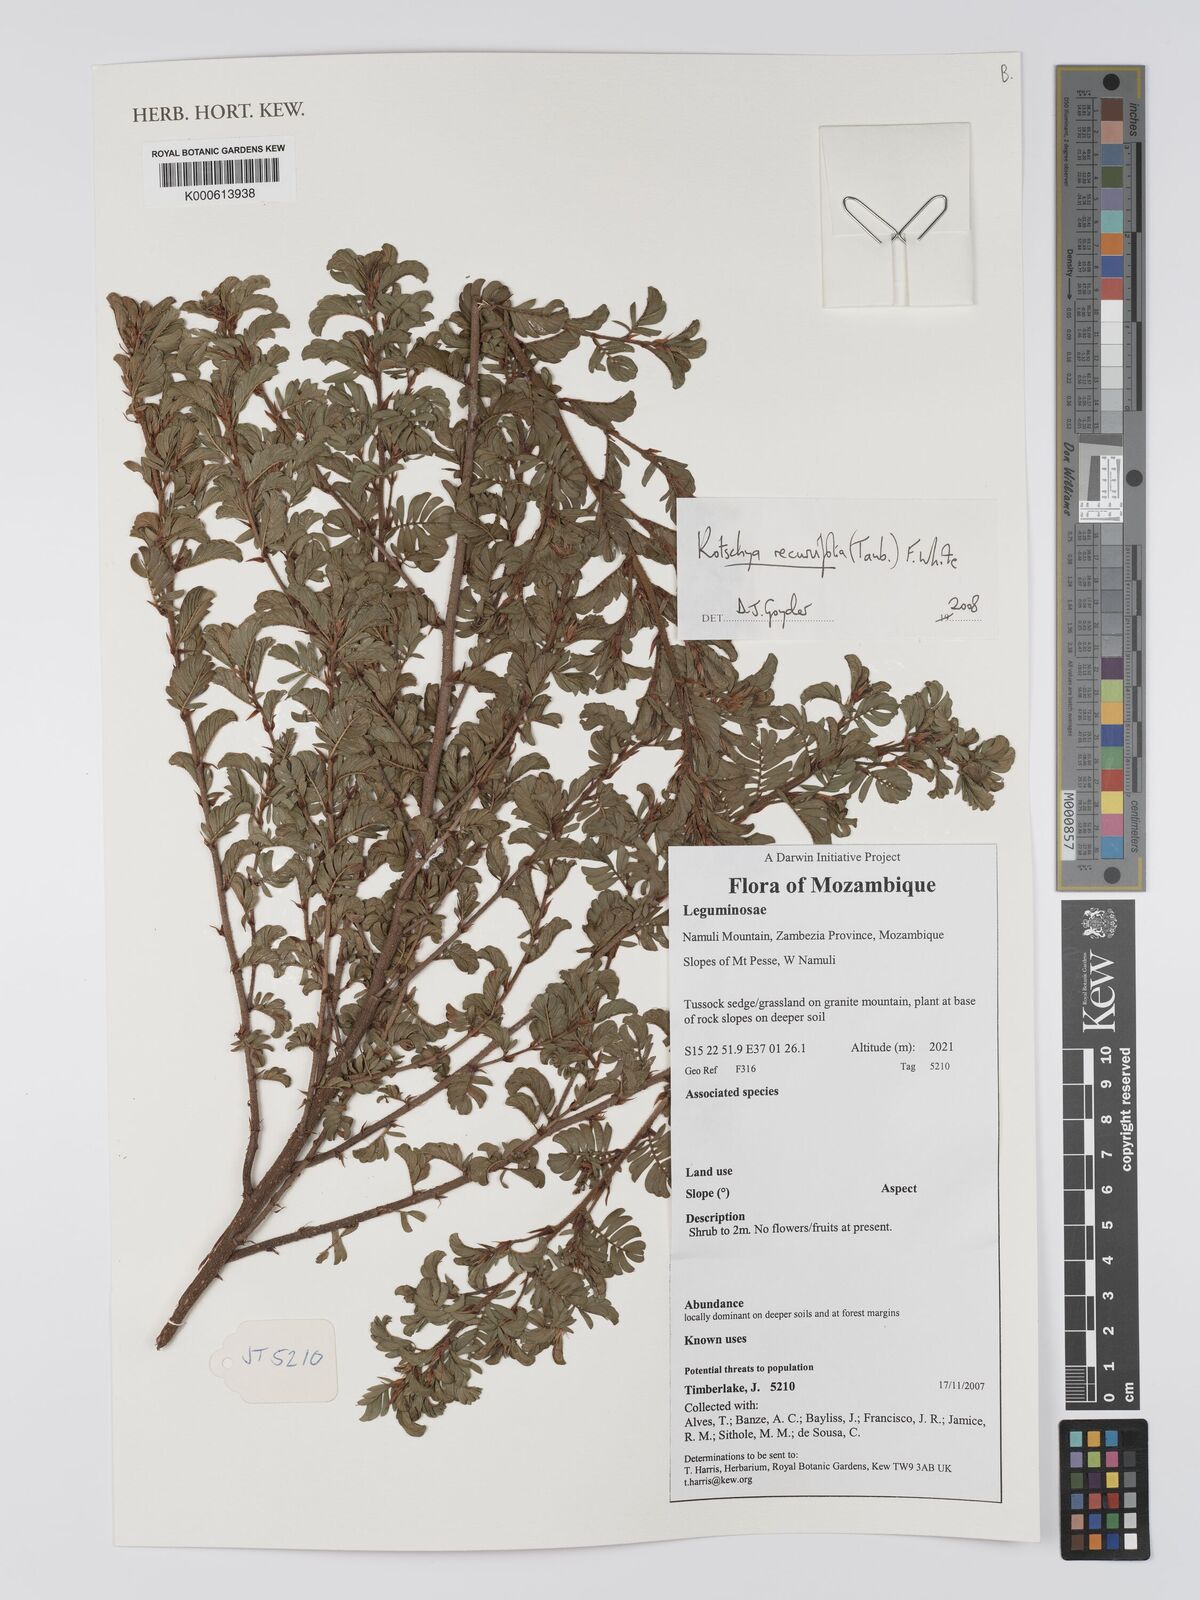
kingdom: Plantae
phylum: Tracheophyta
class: Magnoliopsida
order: Fabales
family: Fabaceae
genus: Kotschya
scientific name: Kotschya recurvifolia
